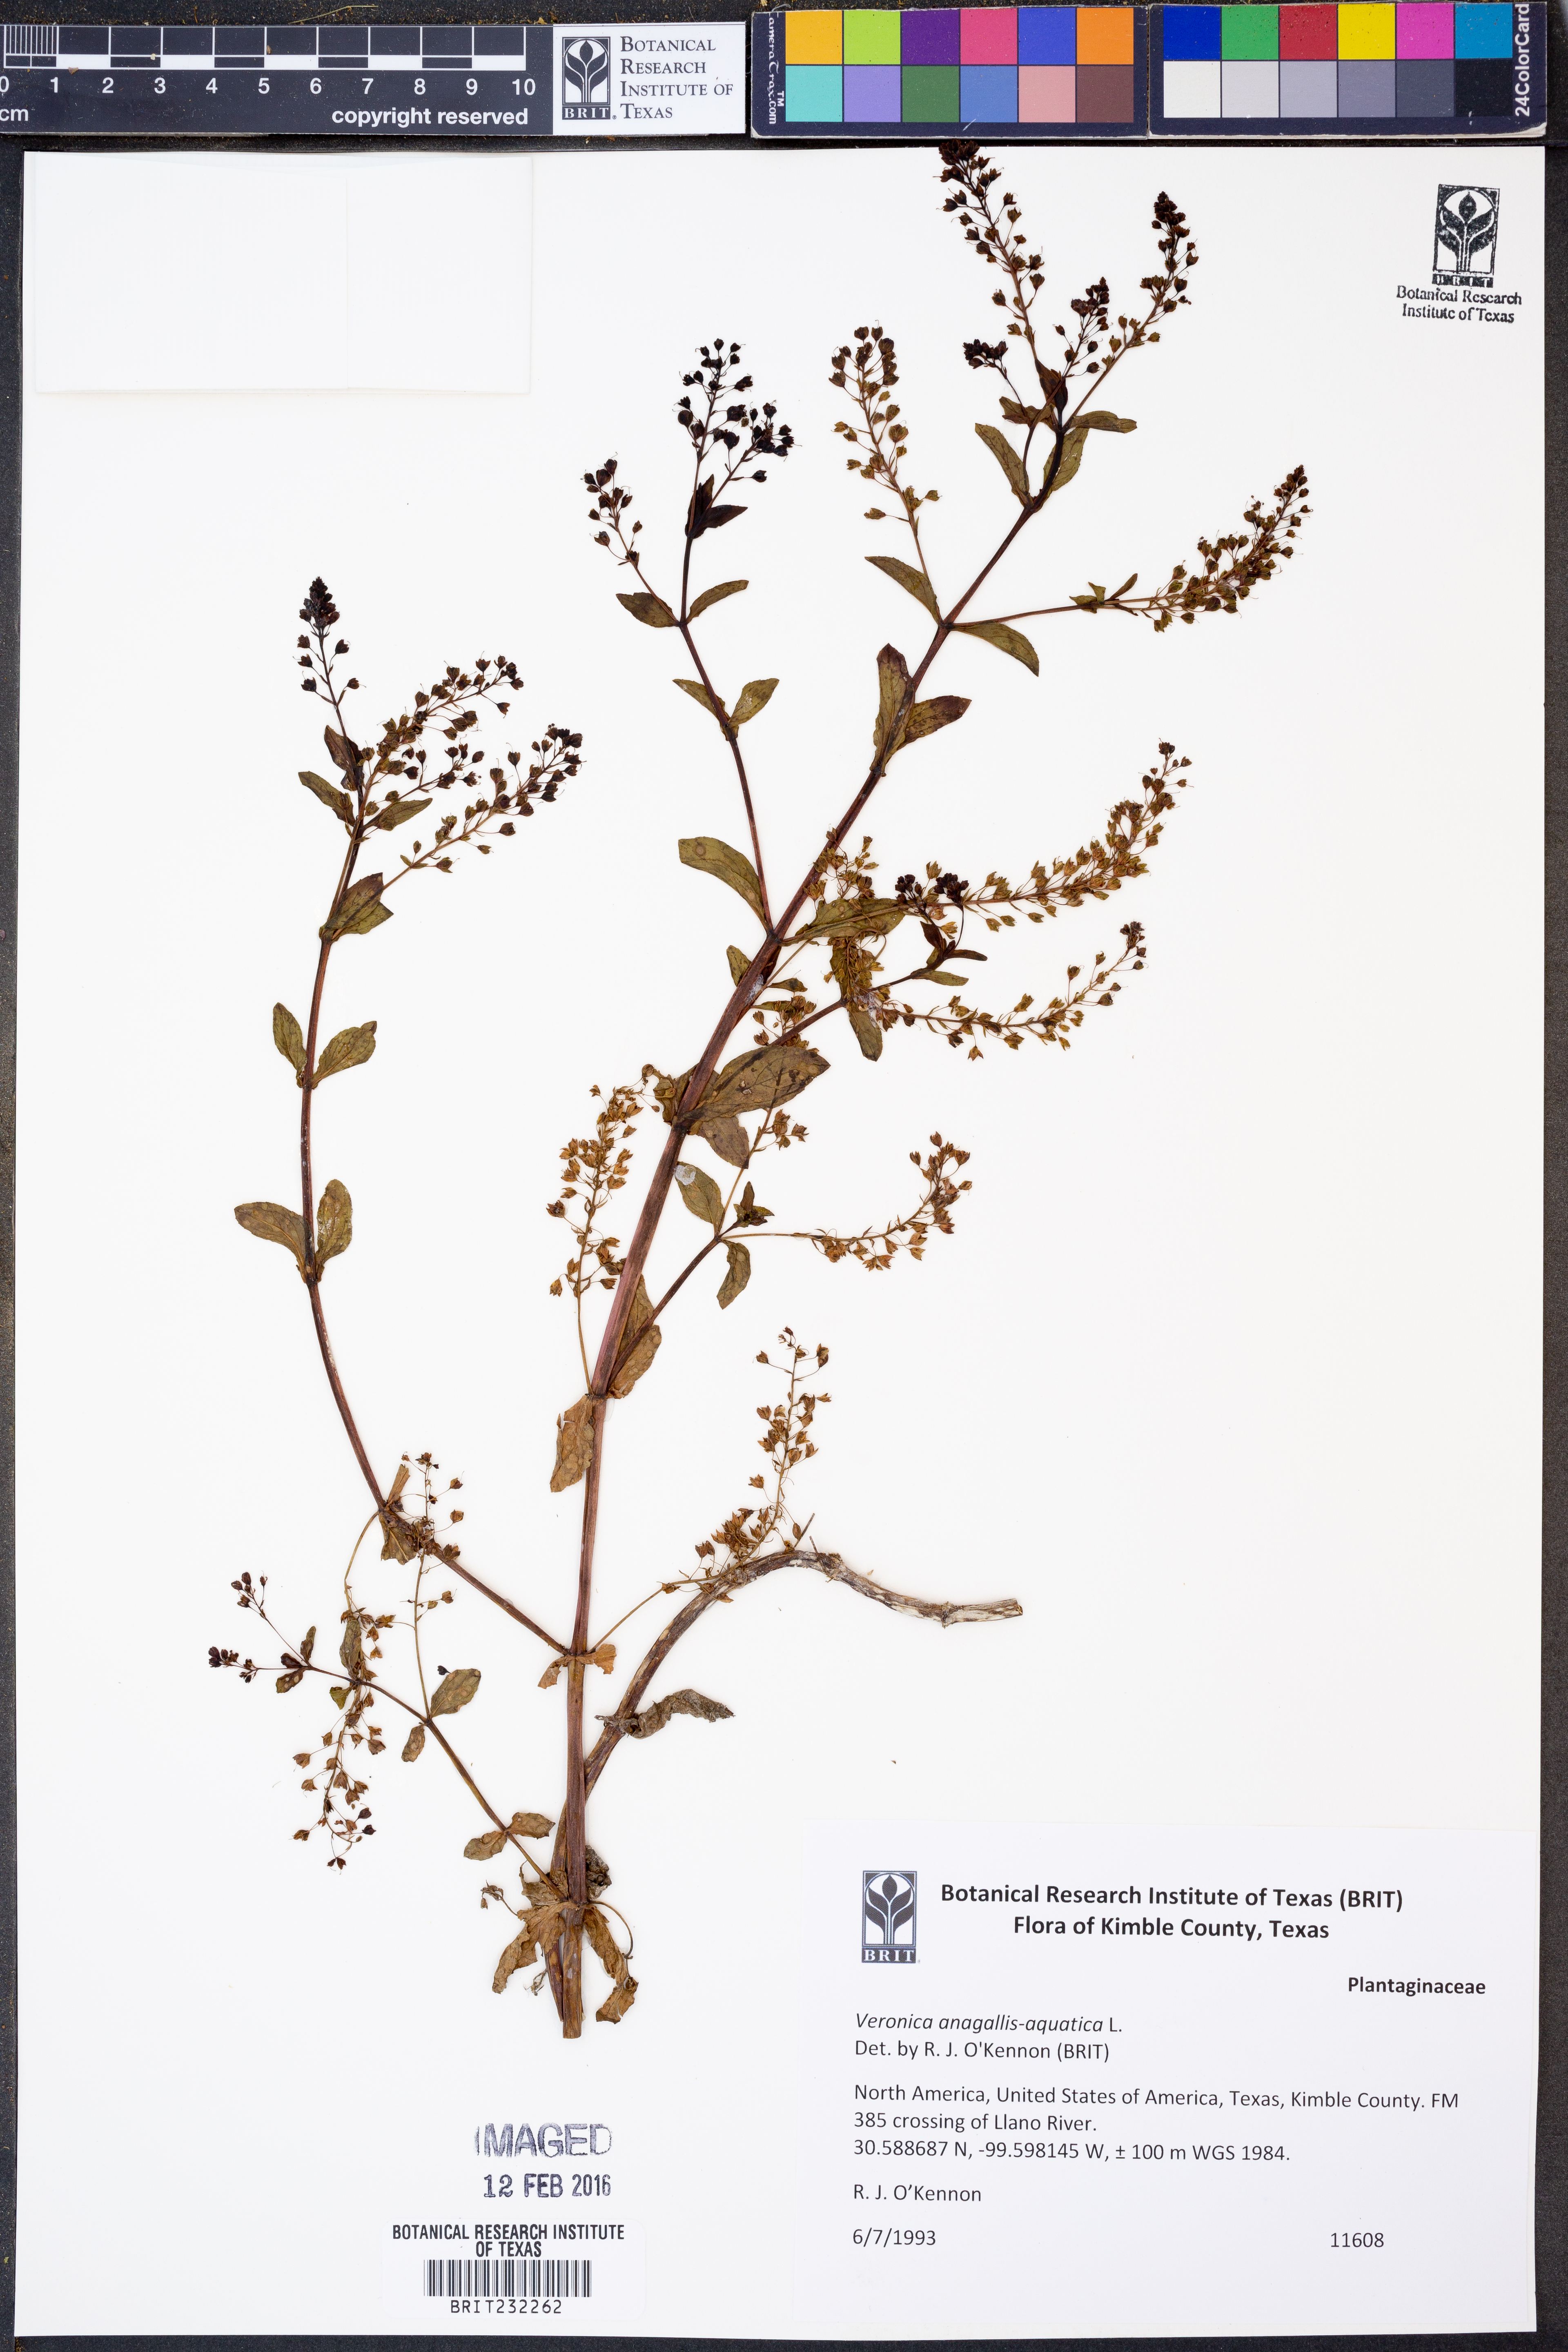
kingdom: Plantae
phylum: Tracheophyta
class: Magnoliopsida
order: Lamiales
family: Plantaginaceae
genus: Veronica
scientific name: Veronica anagallis-aquatica
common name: Water speedwell
